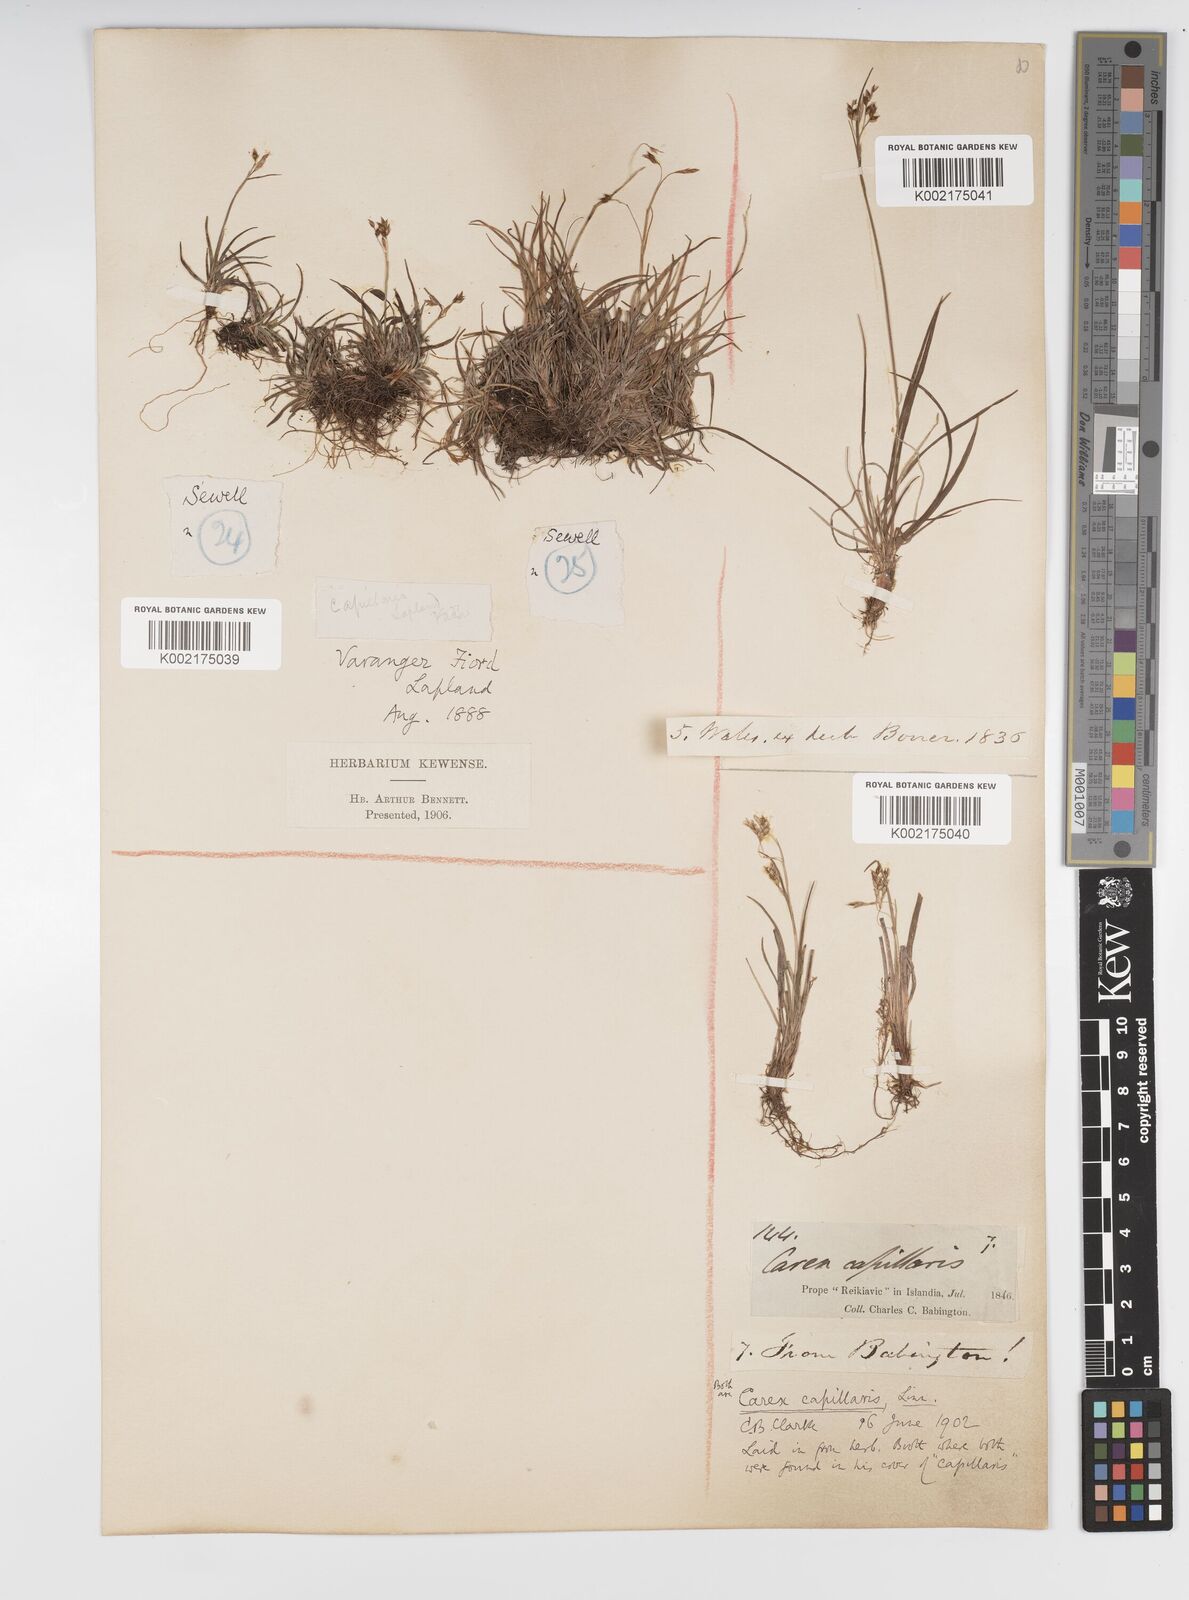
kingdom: Plantae
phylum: Tracheophyta
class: Liliopsida
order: Poales
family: Cyperaceae
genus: Carex
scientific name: Carex capillaris
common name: Hair sedge
